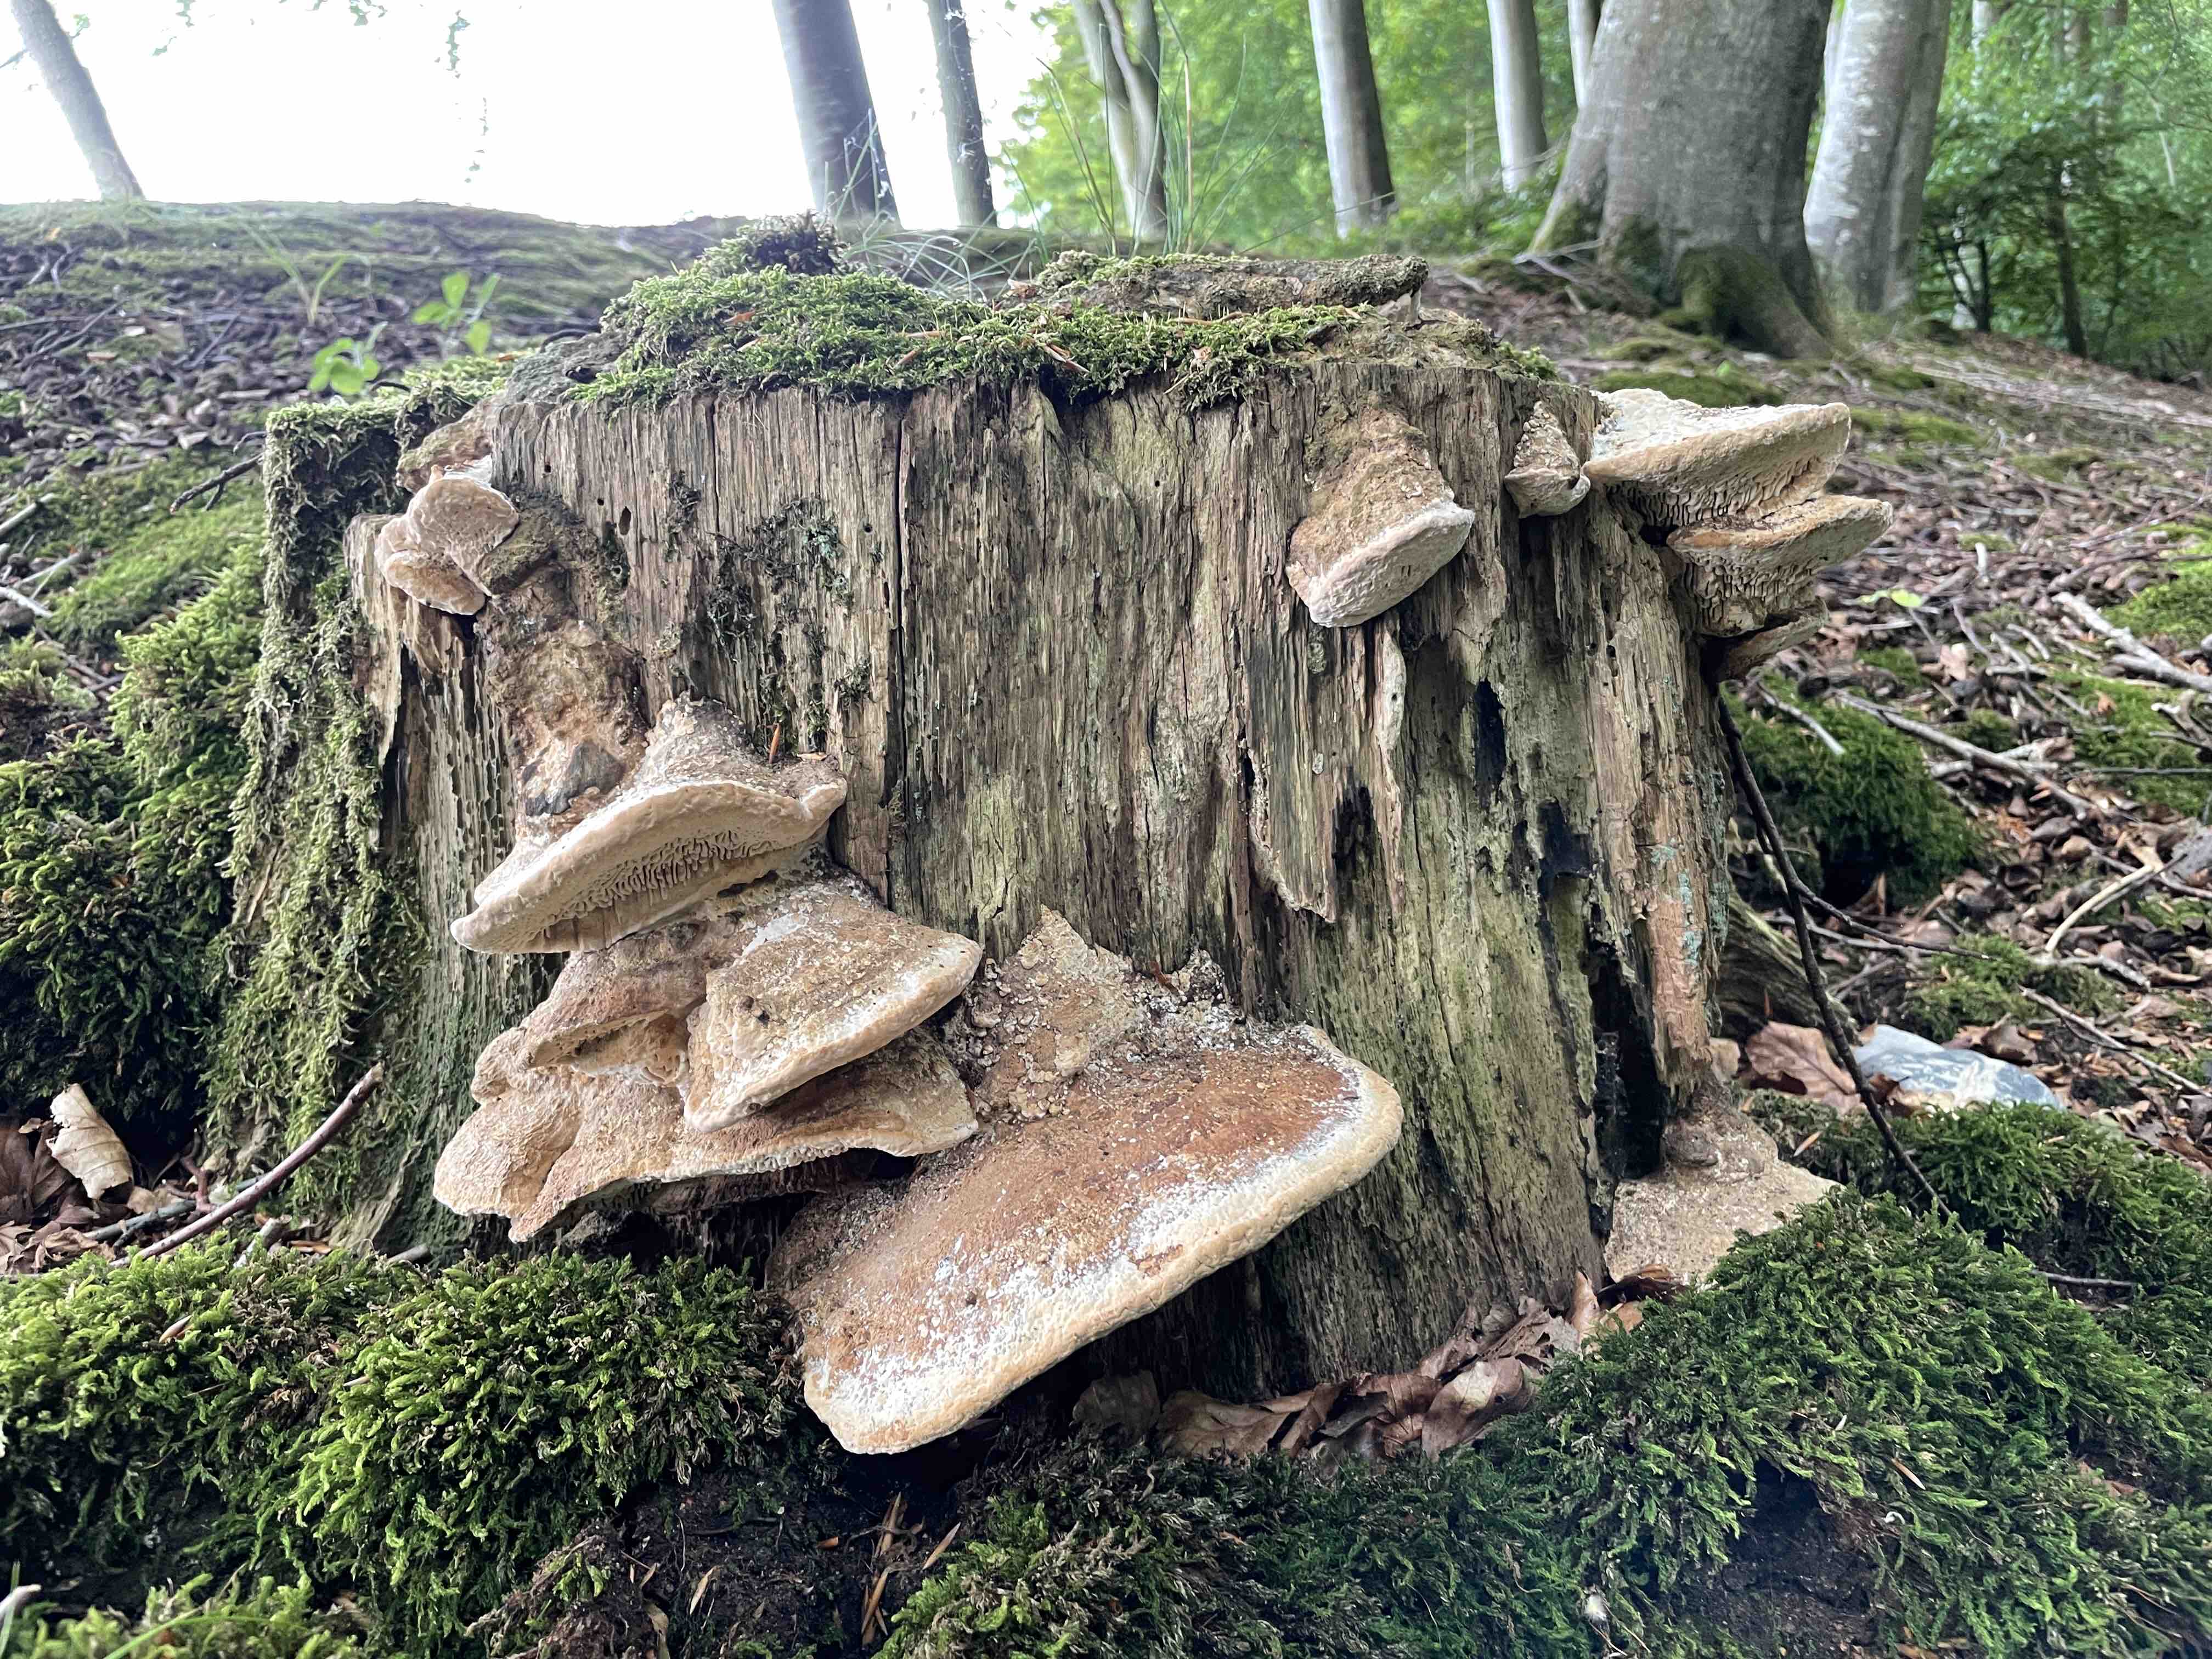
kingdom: Fungi
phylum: Basidiomycota
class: Agaricomycetes
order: Polyporales
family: Fomitopsidaceae
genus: Daedalea
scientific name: Daedalea quercina
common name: ege-labyrintsvamp
